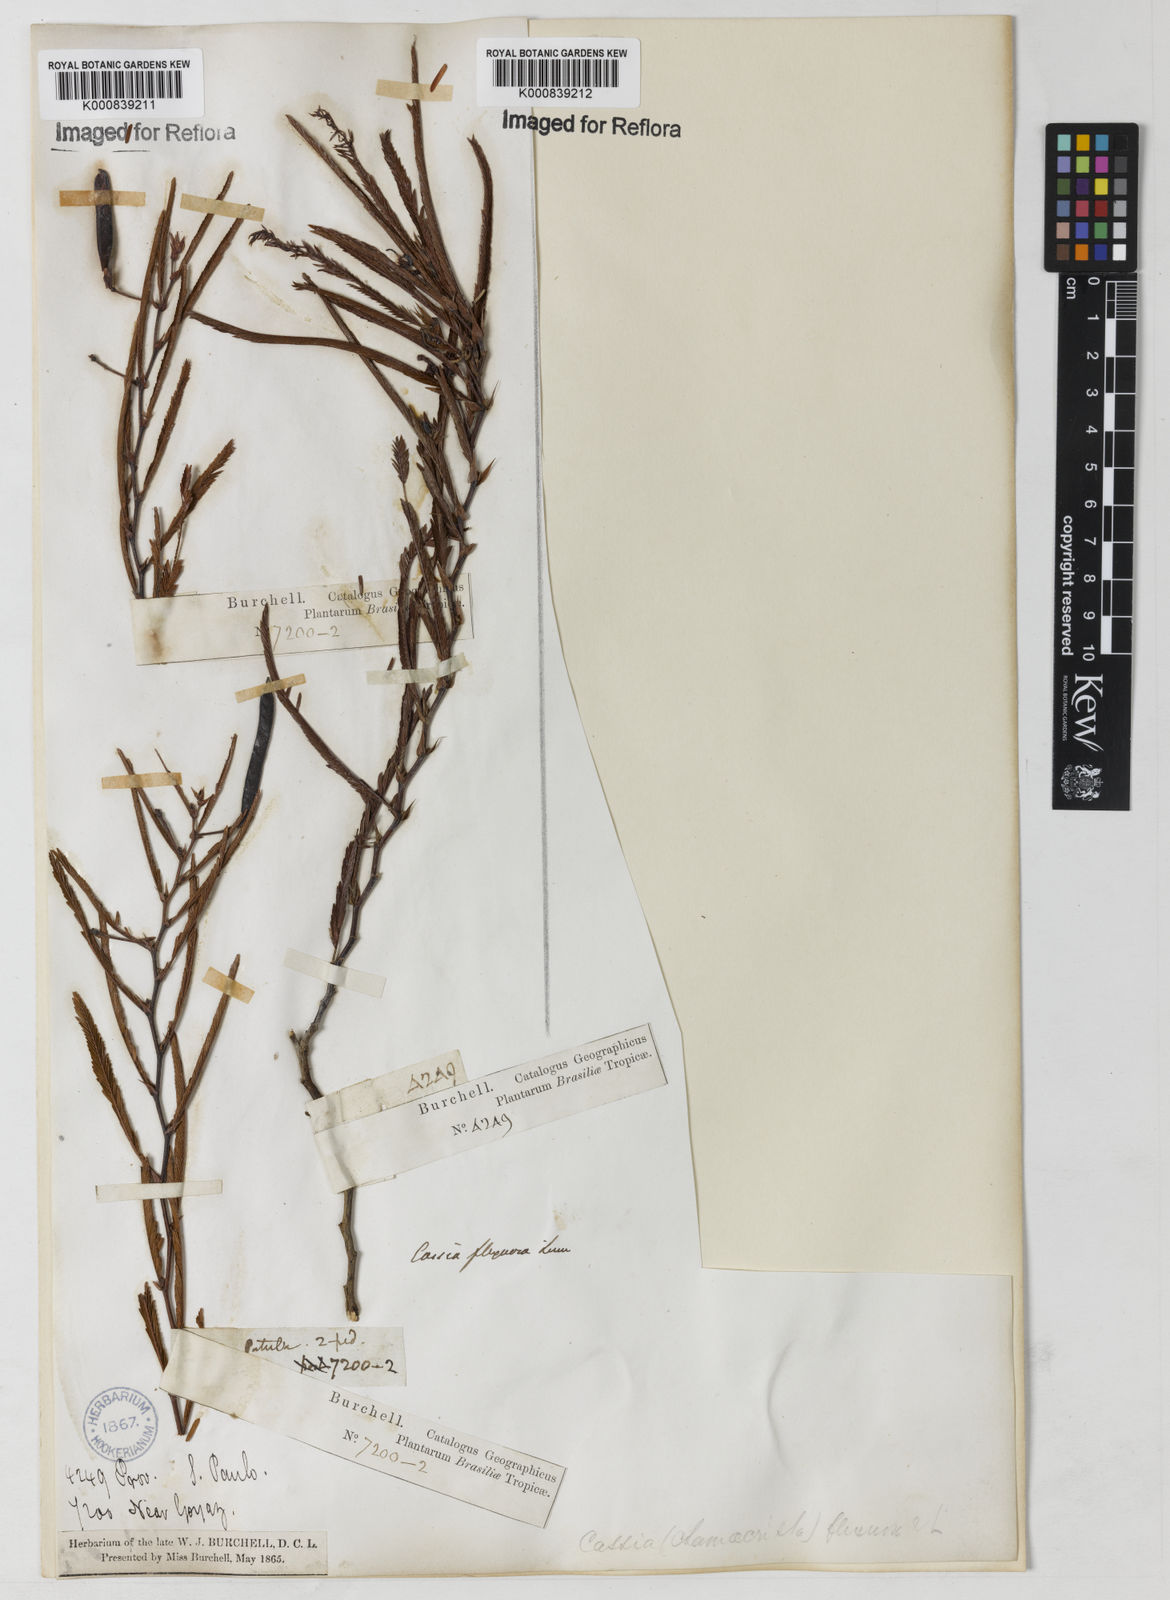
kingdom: Plantae
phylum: Tracheophyta
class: Magnoliopsida
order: Fabales
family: Fabaceae
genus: Chamaecrista
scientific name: Chamaecrista flexuosa
